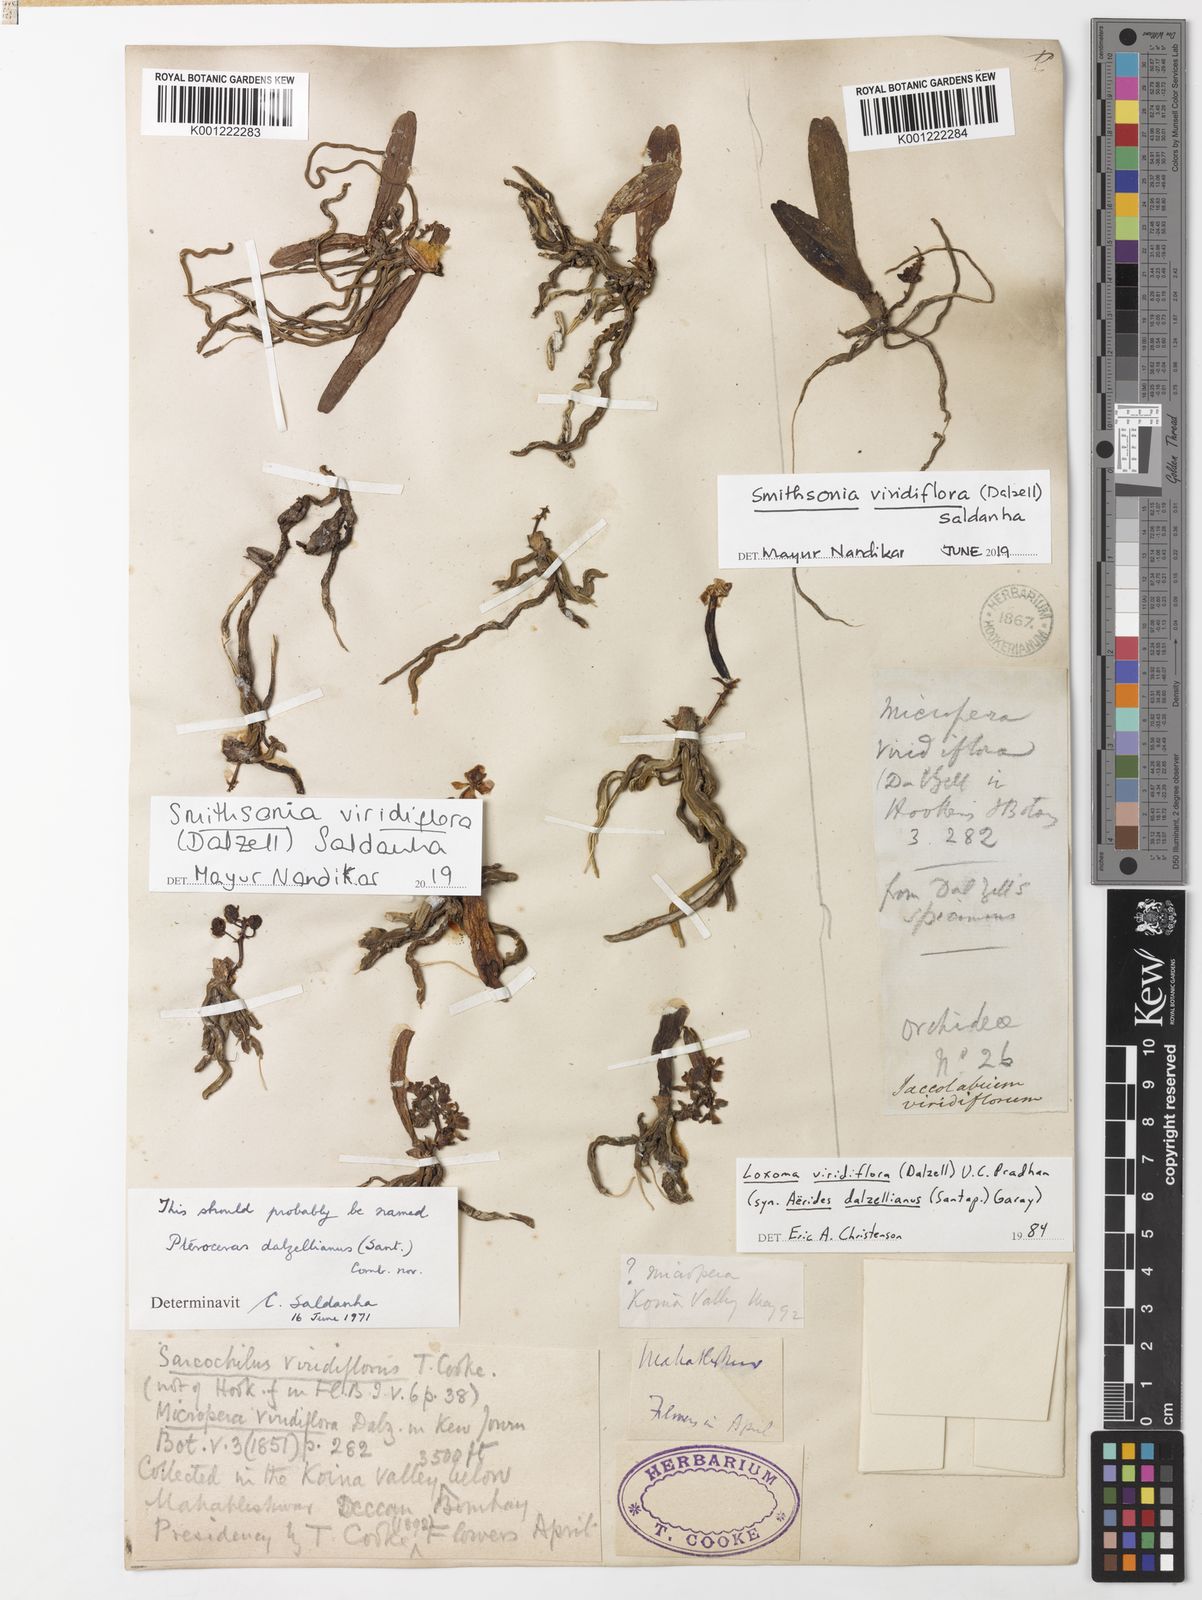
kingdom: Plantae
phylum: Tracheophyta
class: Liliopsida
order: Asparagales
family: Orchidaceae
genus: Smithsonia
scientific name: Smithsonia viridiflora
